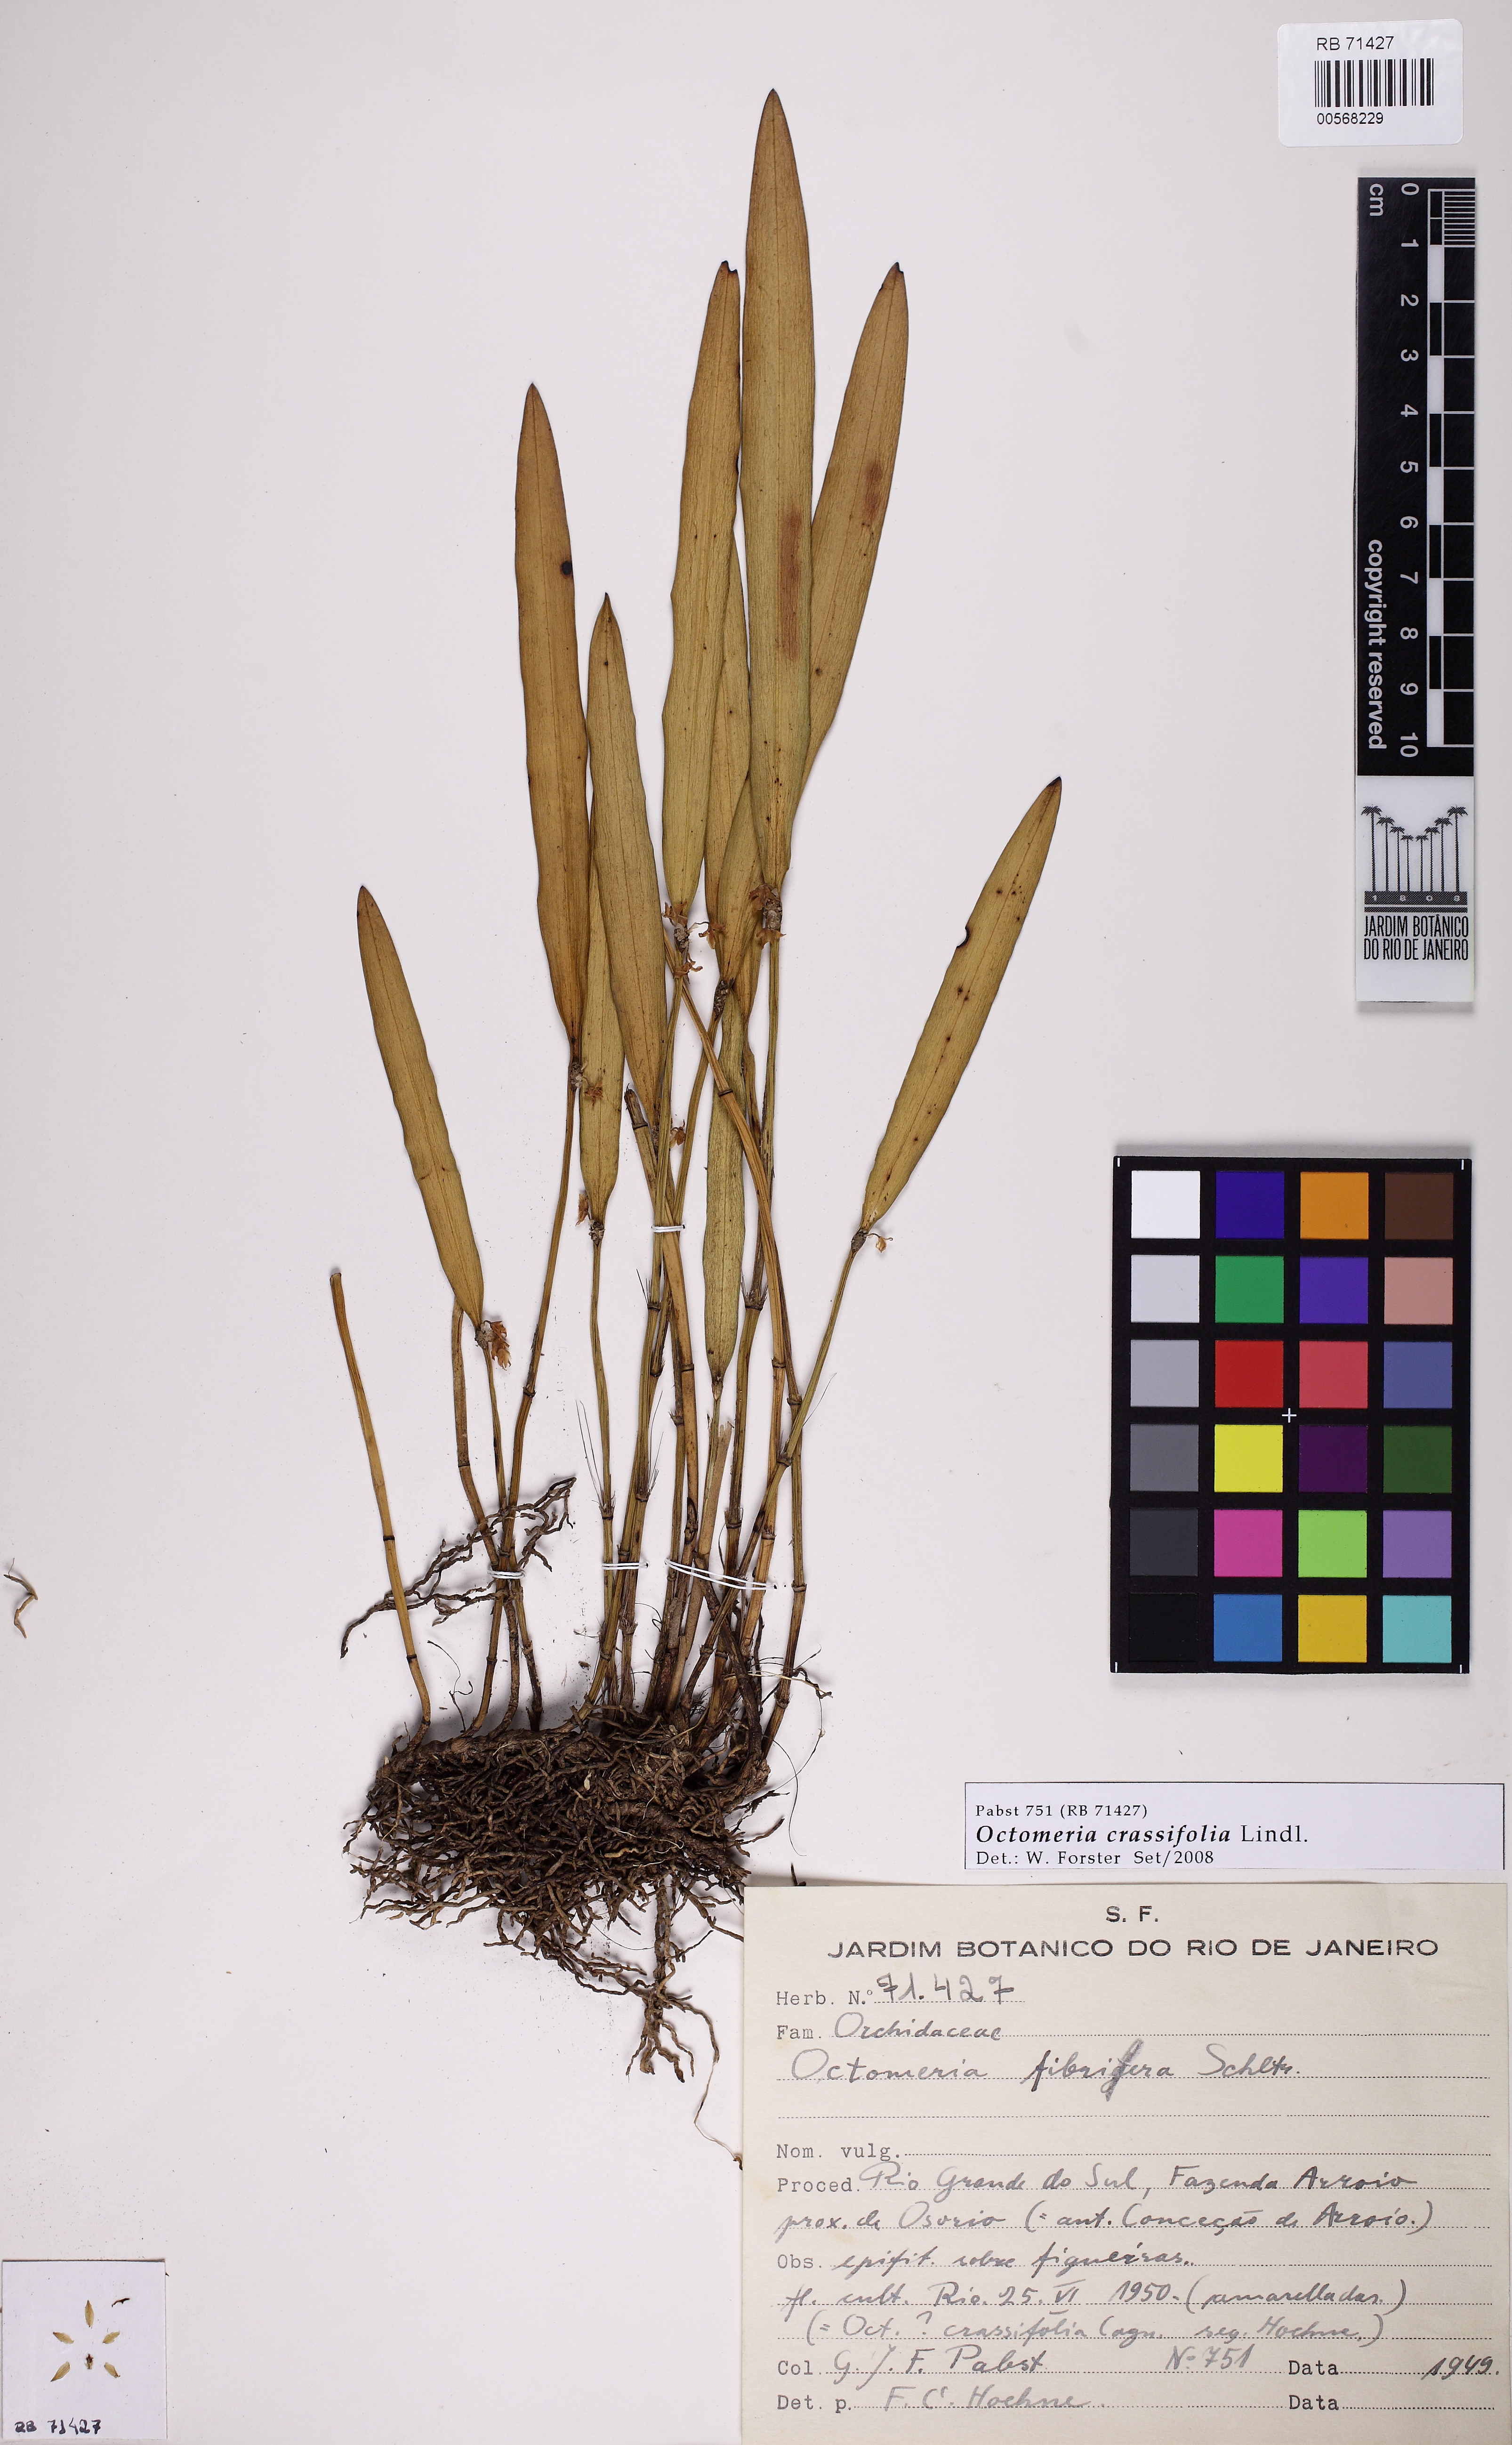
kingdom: Plantae
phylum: Tracheophyta
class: Liliopsida
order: Asparagales
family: Orchidaceae
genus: Octomeria
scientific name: Octomeria crassifolia
